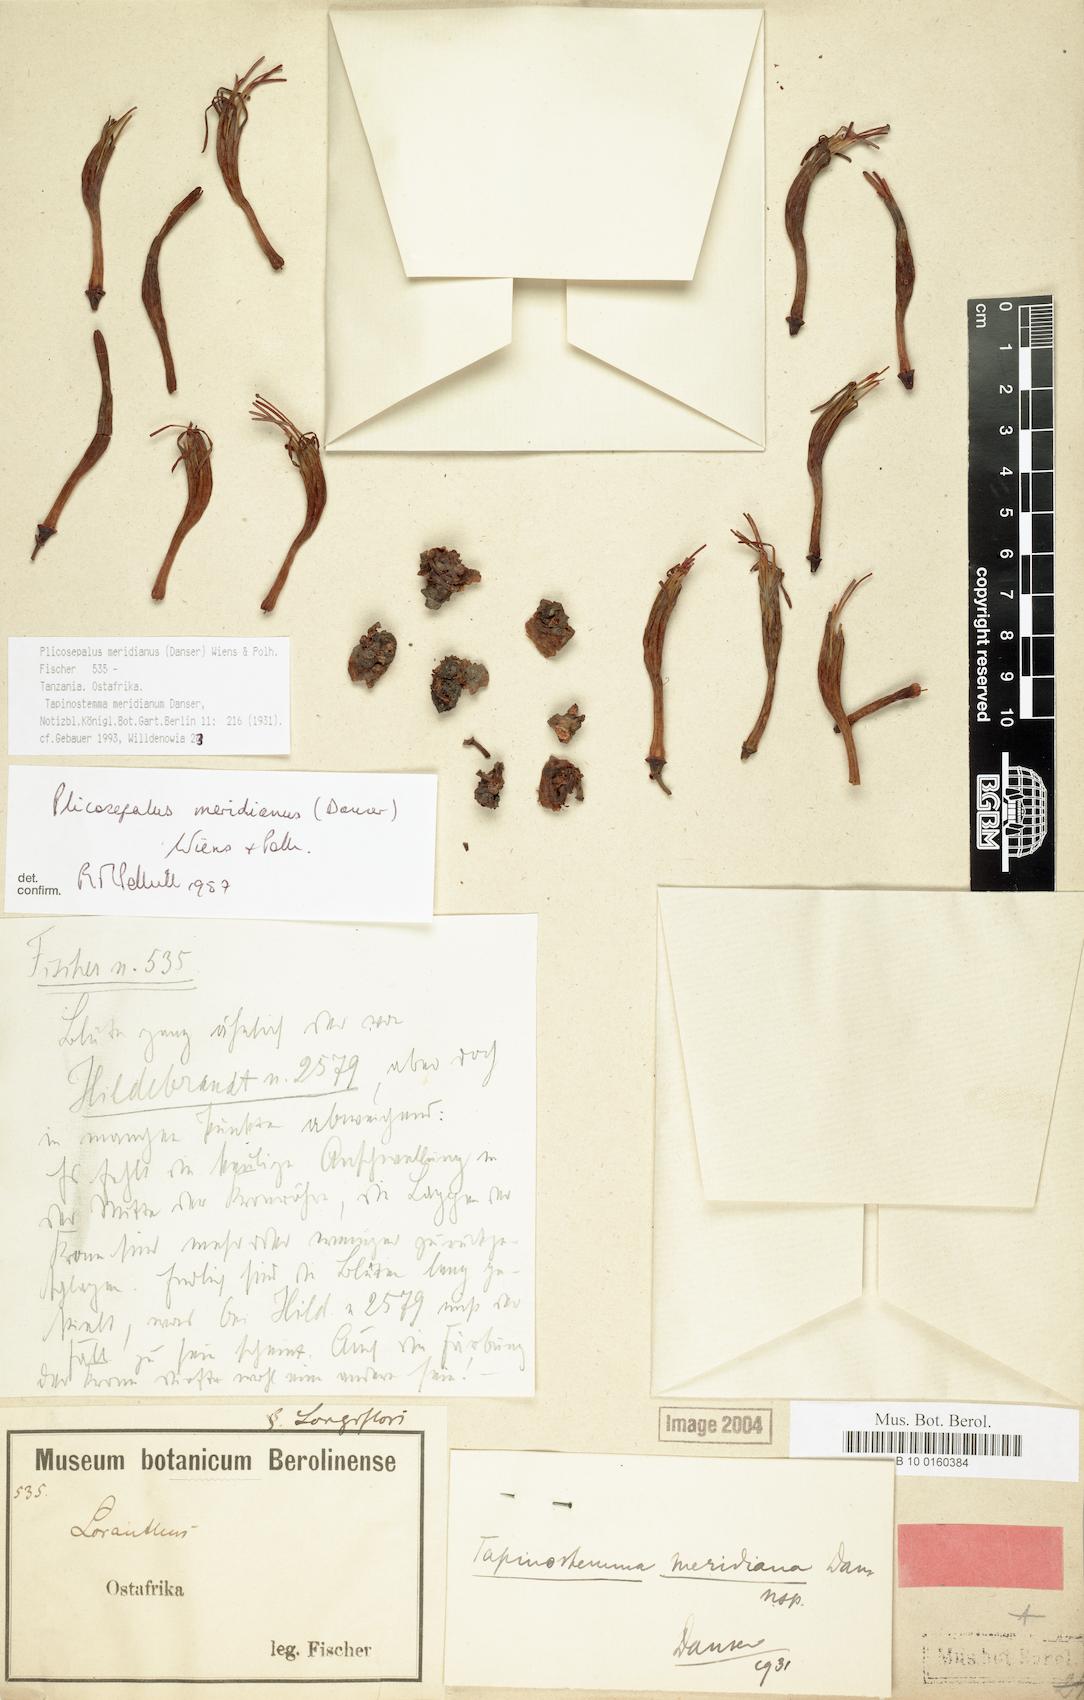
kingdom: Plantae
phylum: Tracheophyta
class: Magnoliopsida
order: Santalales
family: Loranthaceae
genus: Plicosepalus
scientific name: Plicosepalus meridianus
